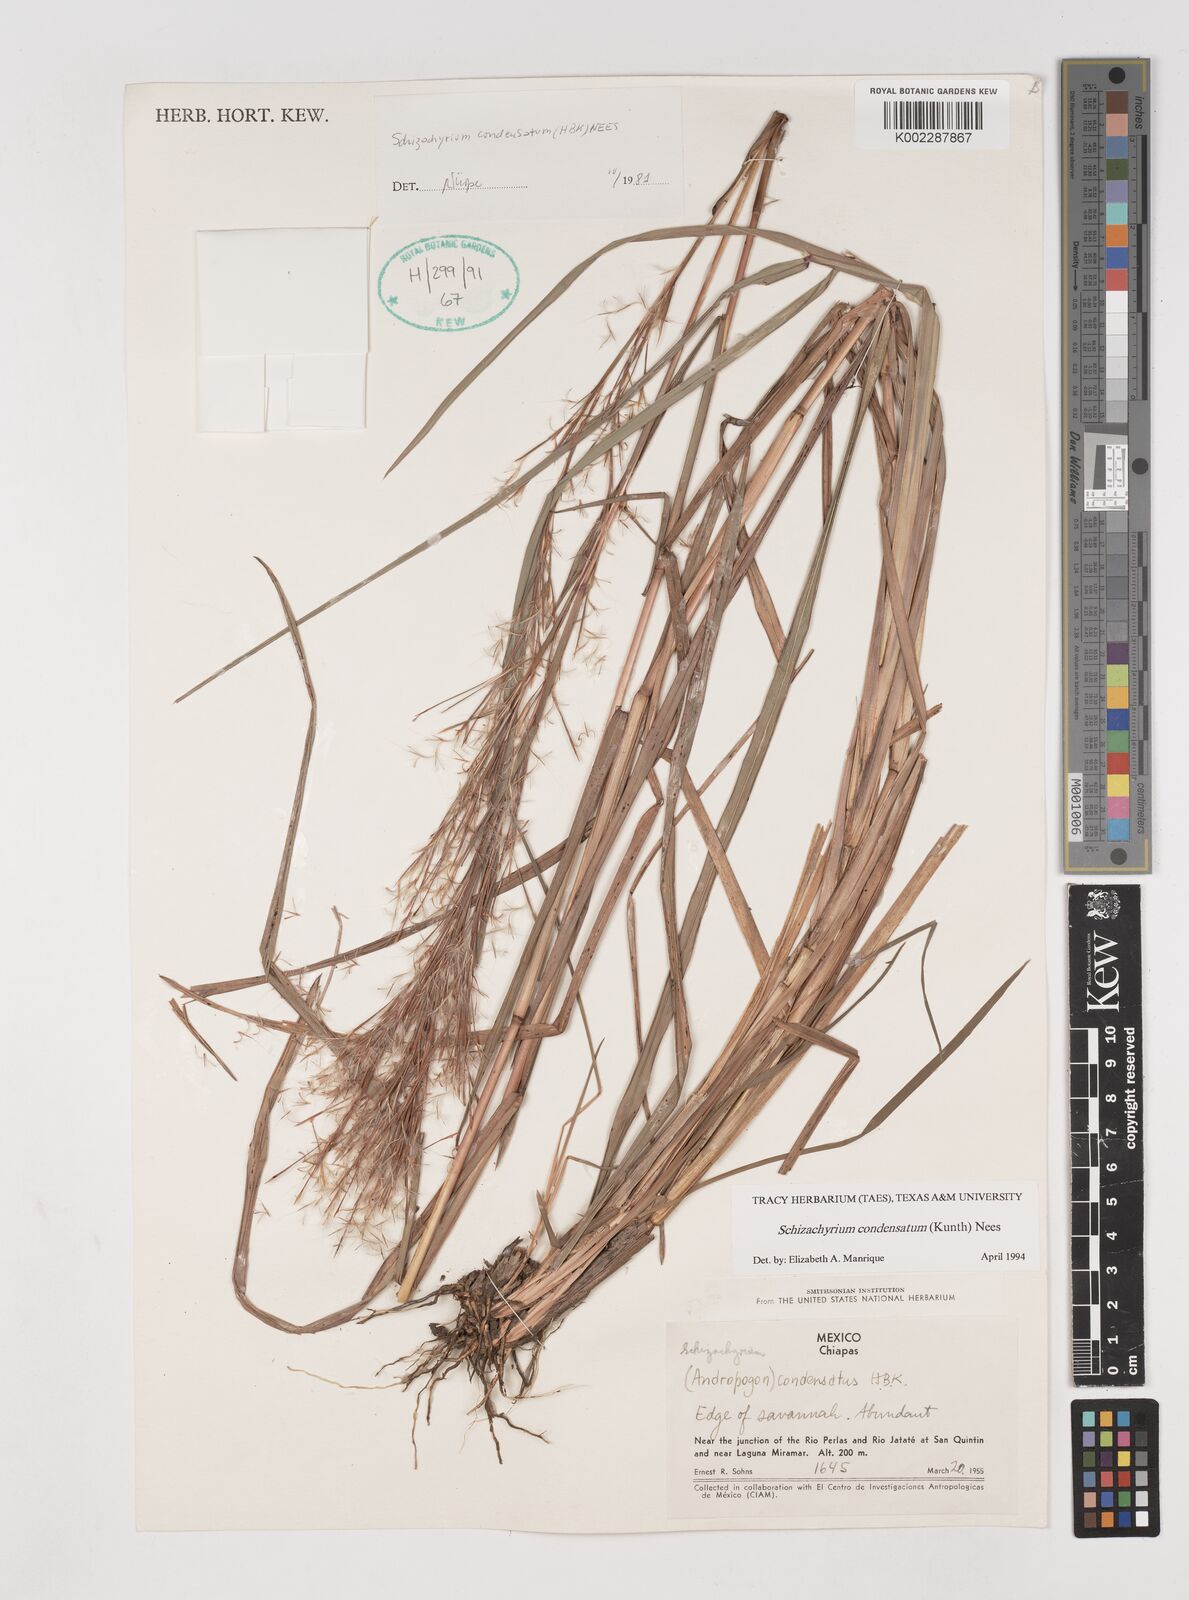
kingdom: Plantae
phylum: Tracheophyta
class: Liliopsida
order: Poales
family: Poaceae
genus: Schizachyrium
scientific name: Schizachyrium condensatum
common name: Bush beardgrass
